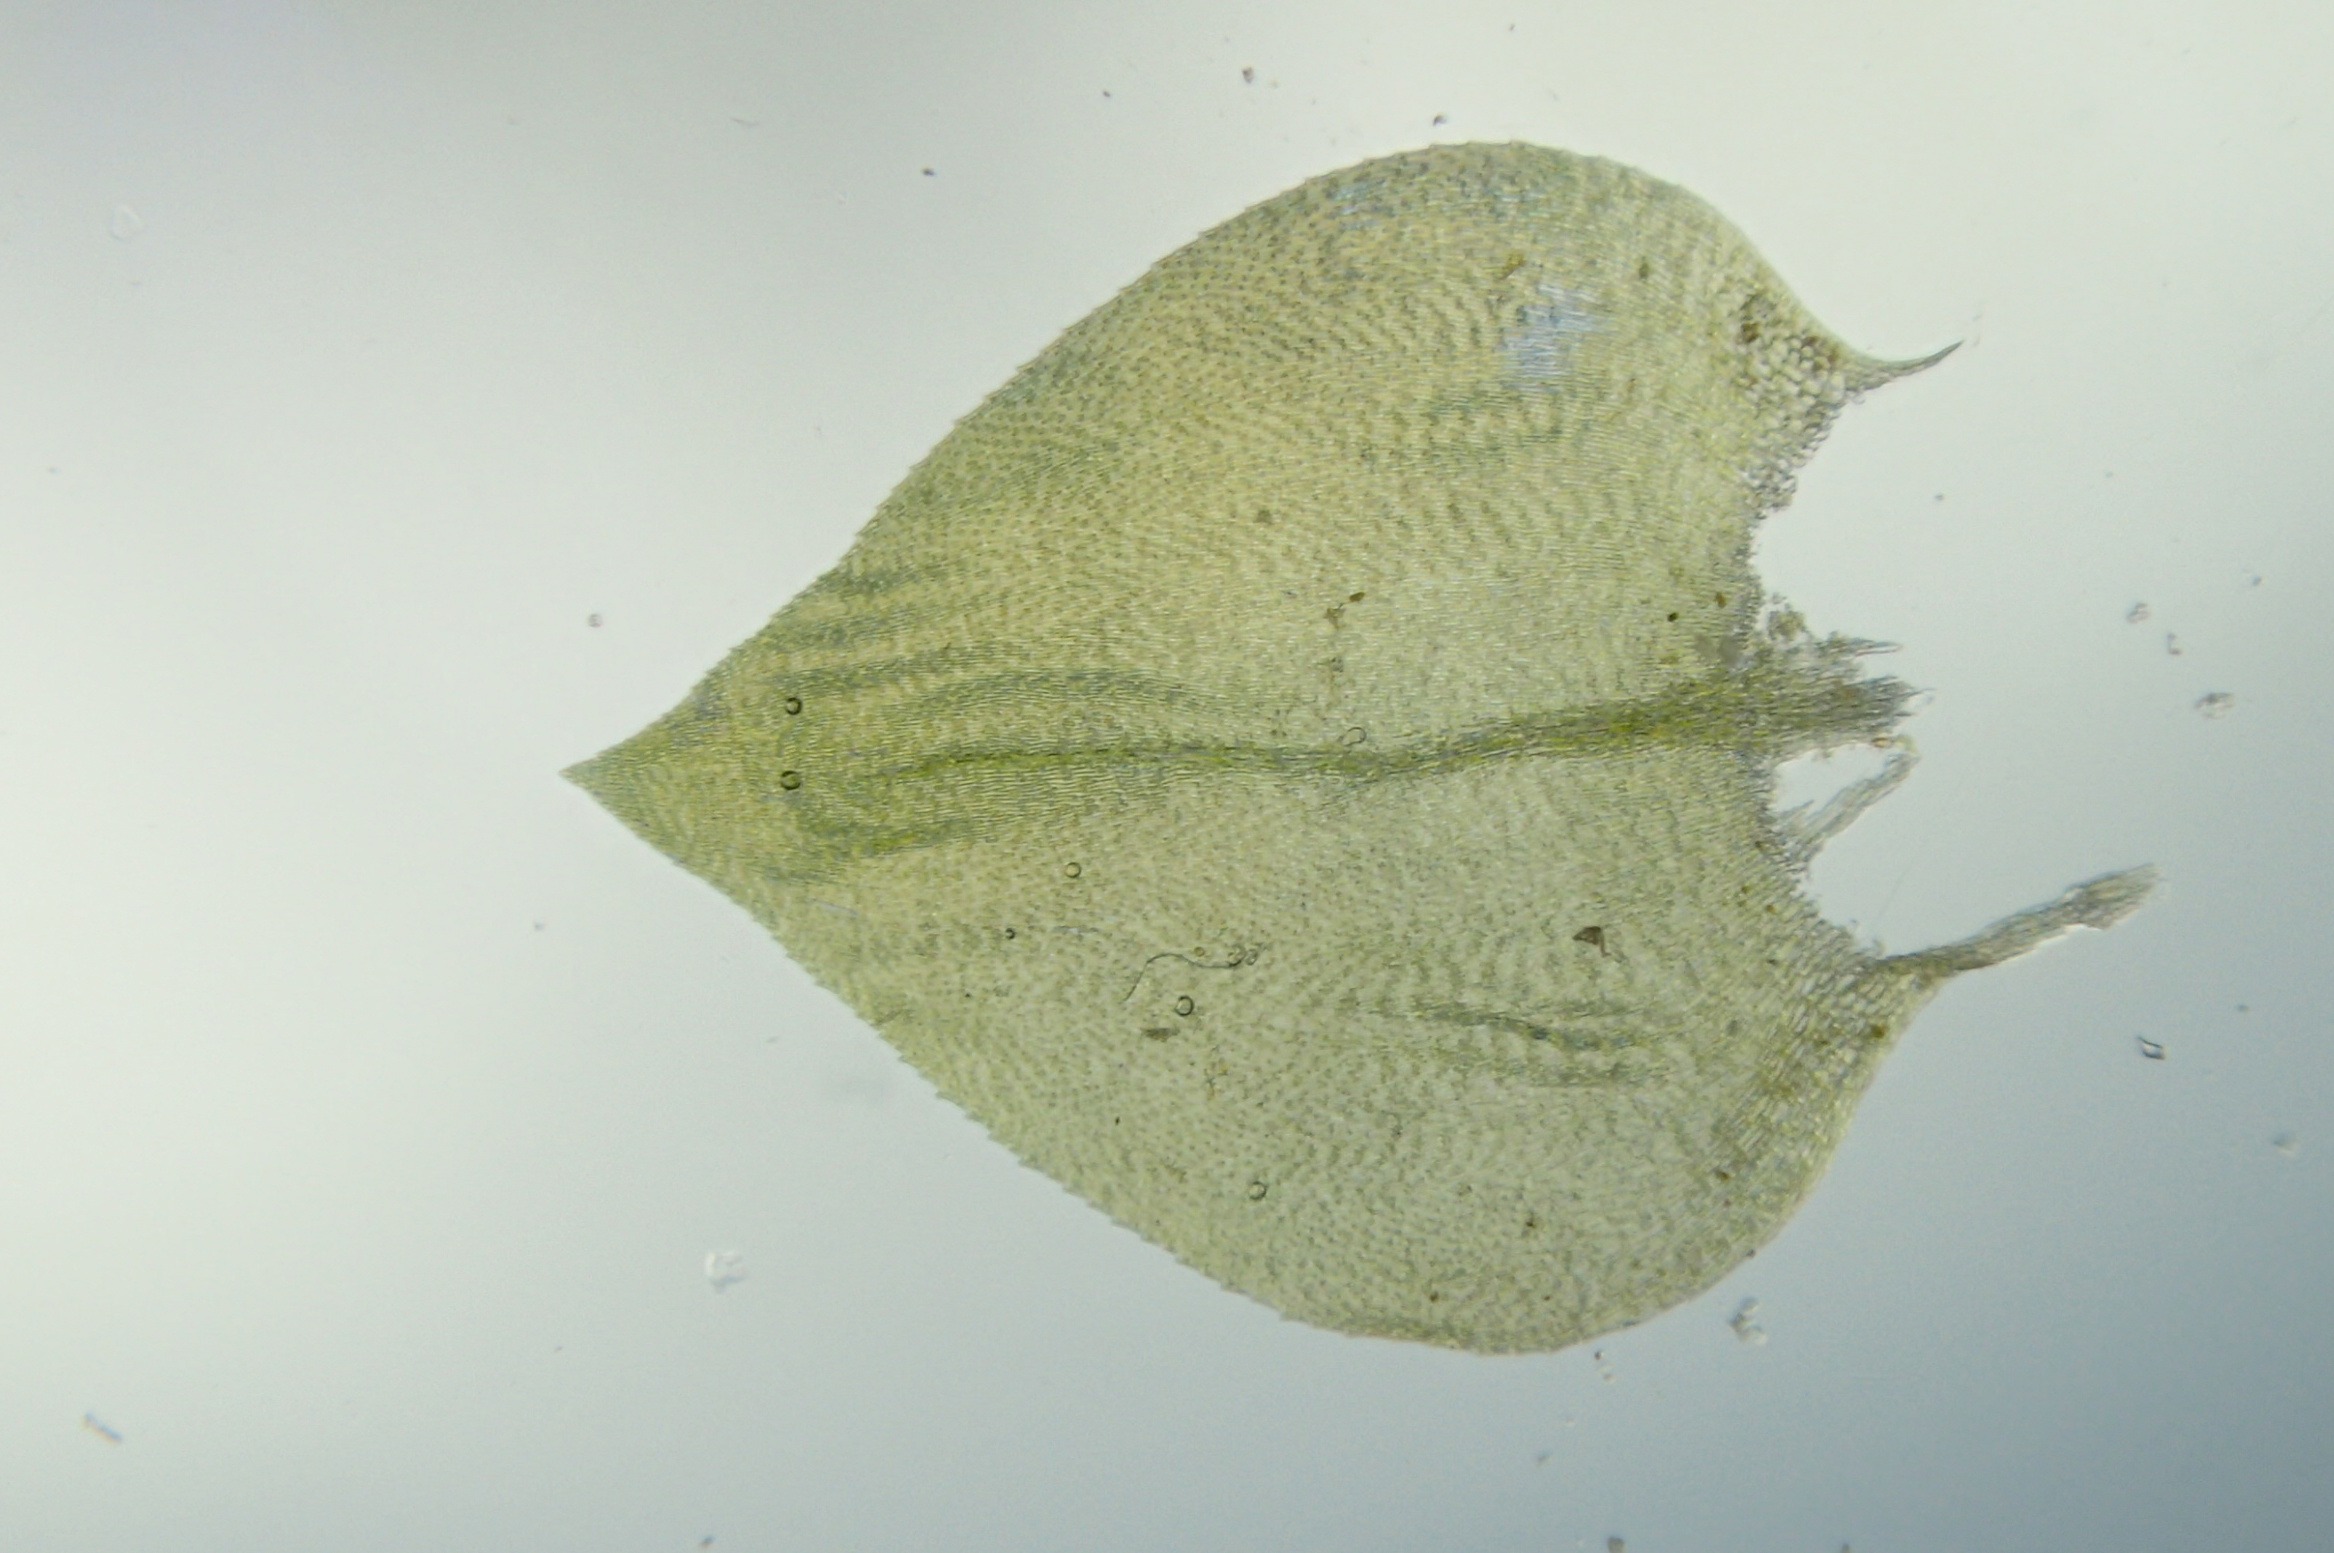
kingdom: Plantae
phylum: Bryophyta
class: Bryopsida
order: Hypnales
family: Brachytheciaceae
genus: Eurhynchium
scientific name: Eurhynchium angustirete
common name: Stor næbmos
